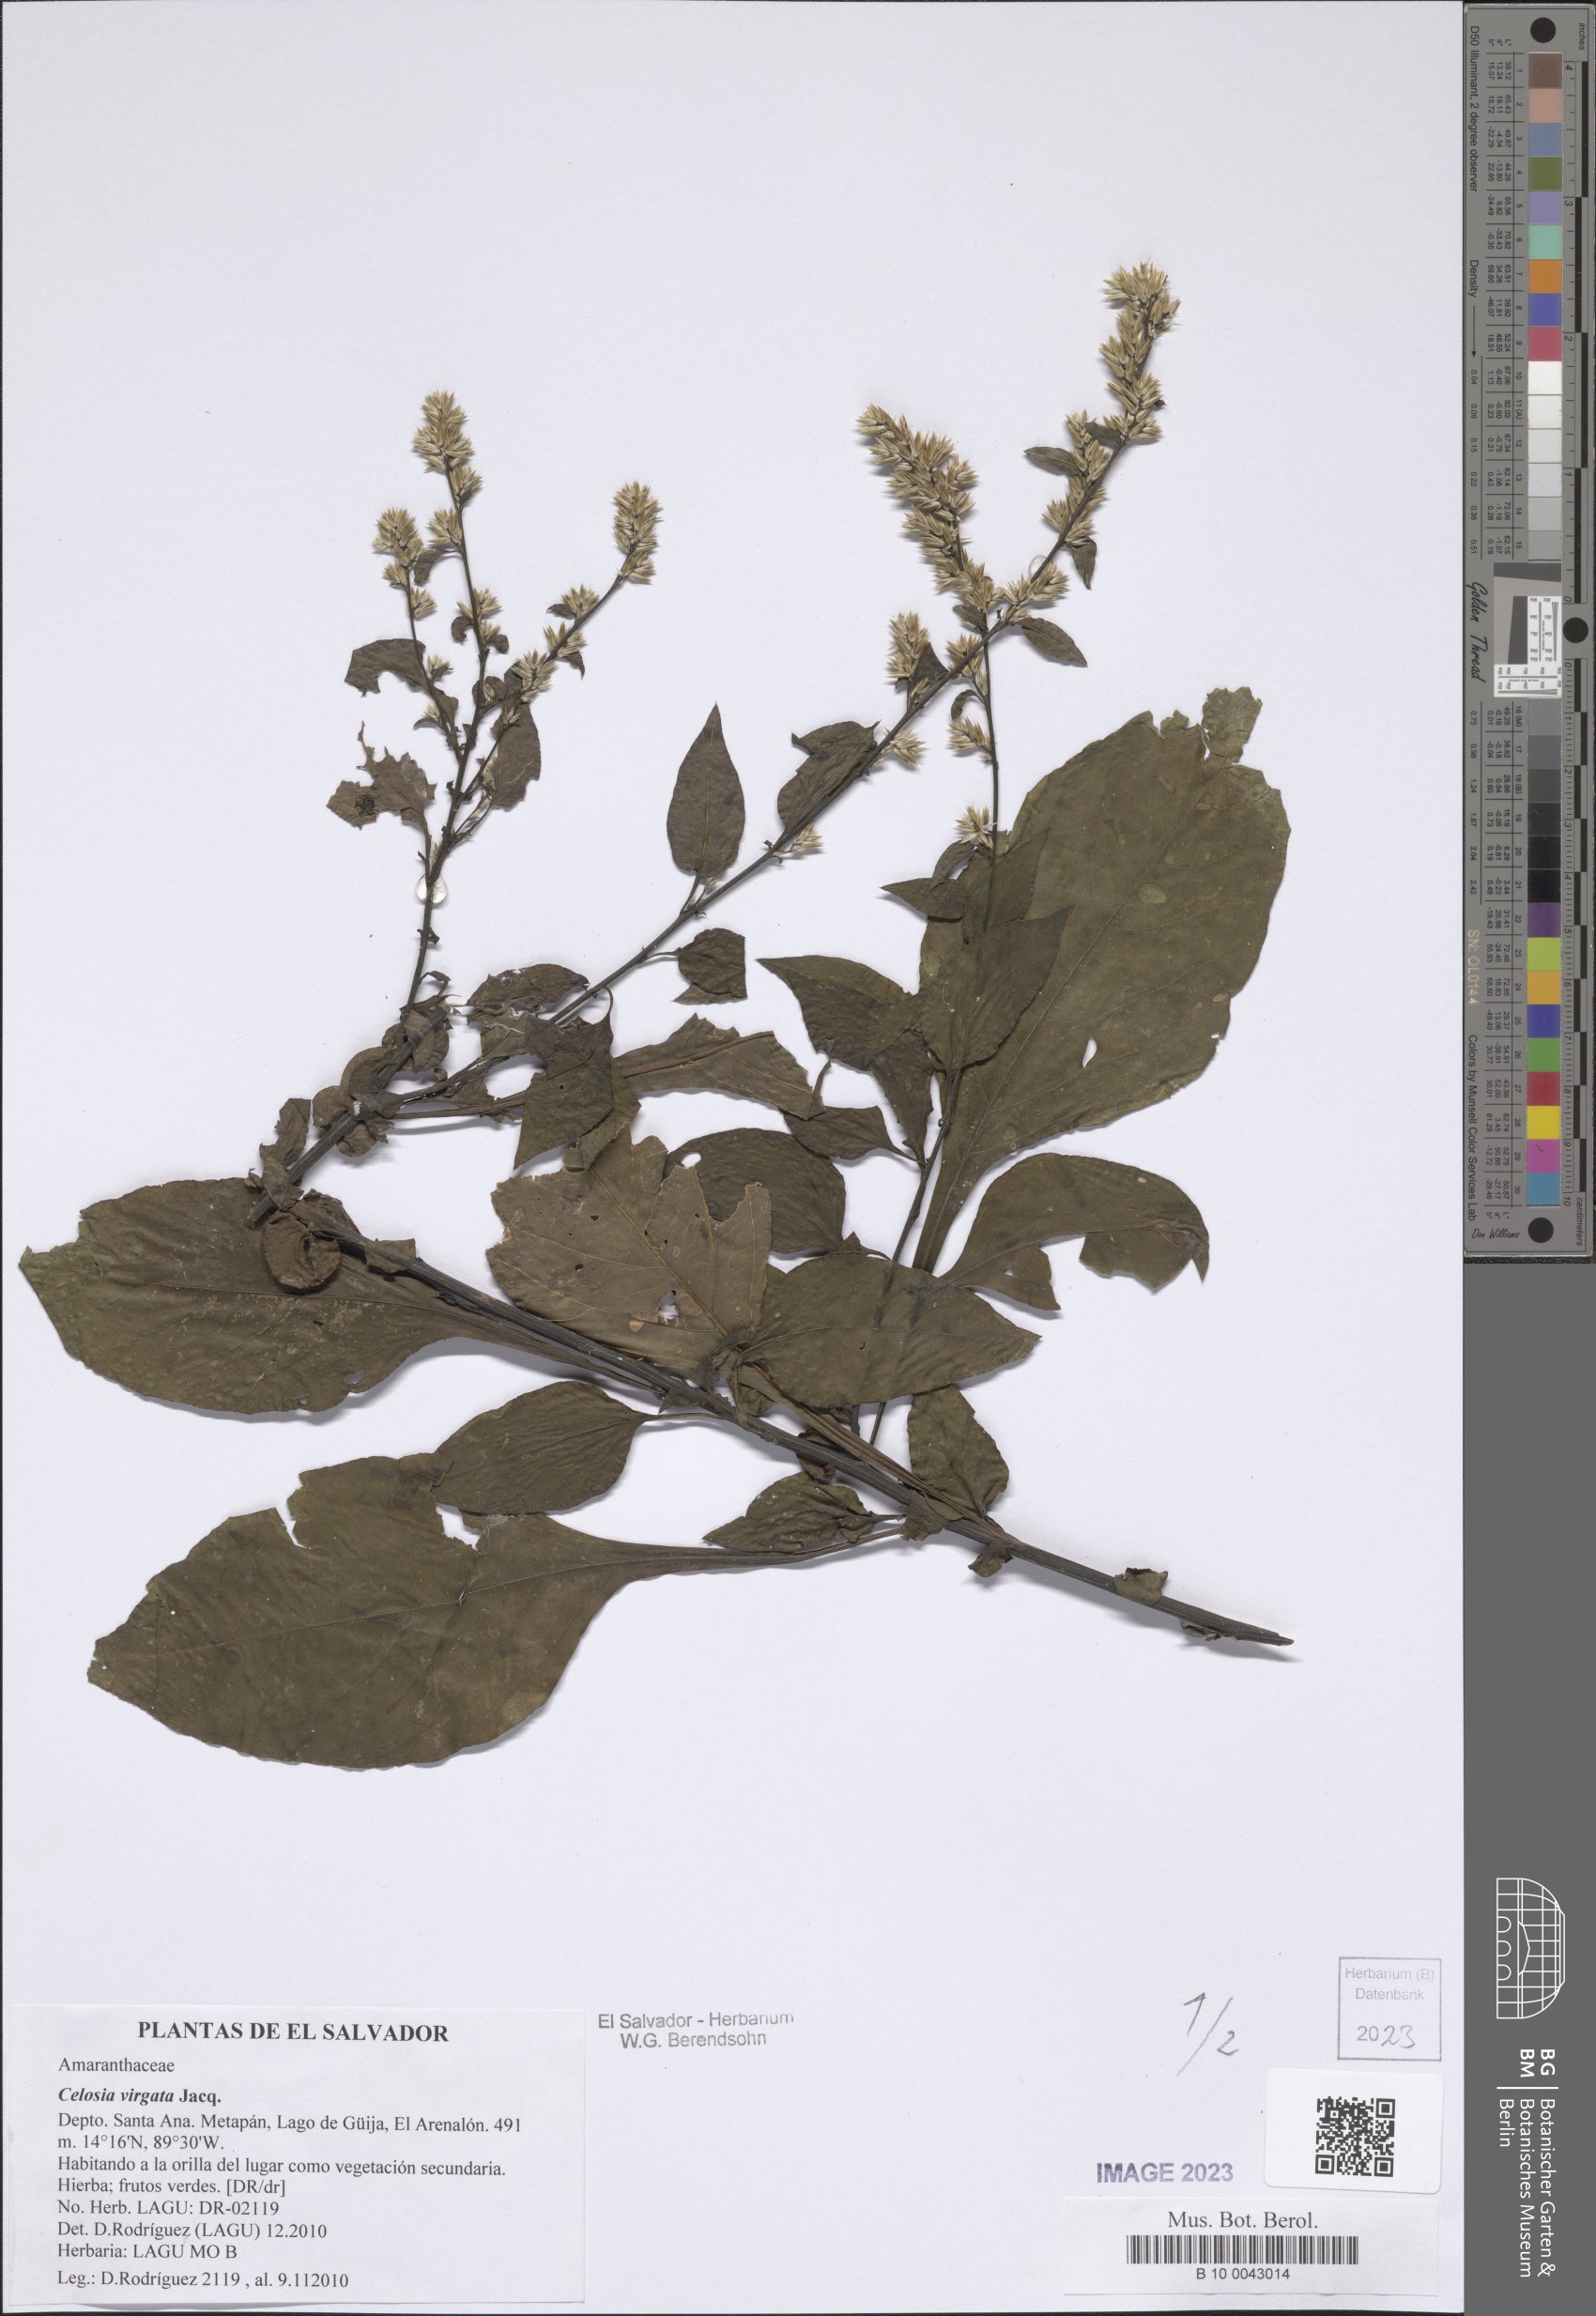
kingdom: Plantae
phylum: Tracheophyta
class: Magnoliopsida
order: Caryophyllales
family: Amaranthaceae
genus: Celosia
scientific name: Celosia virgata
